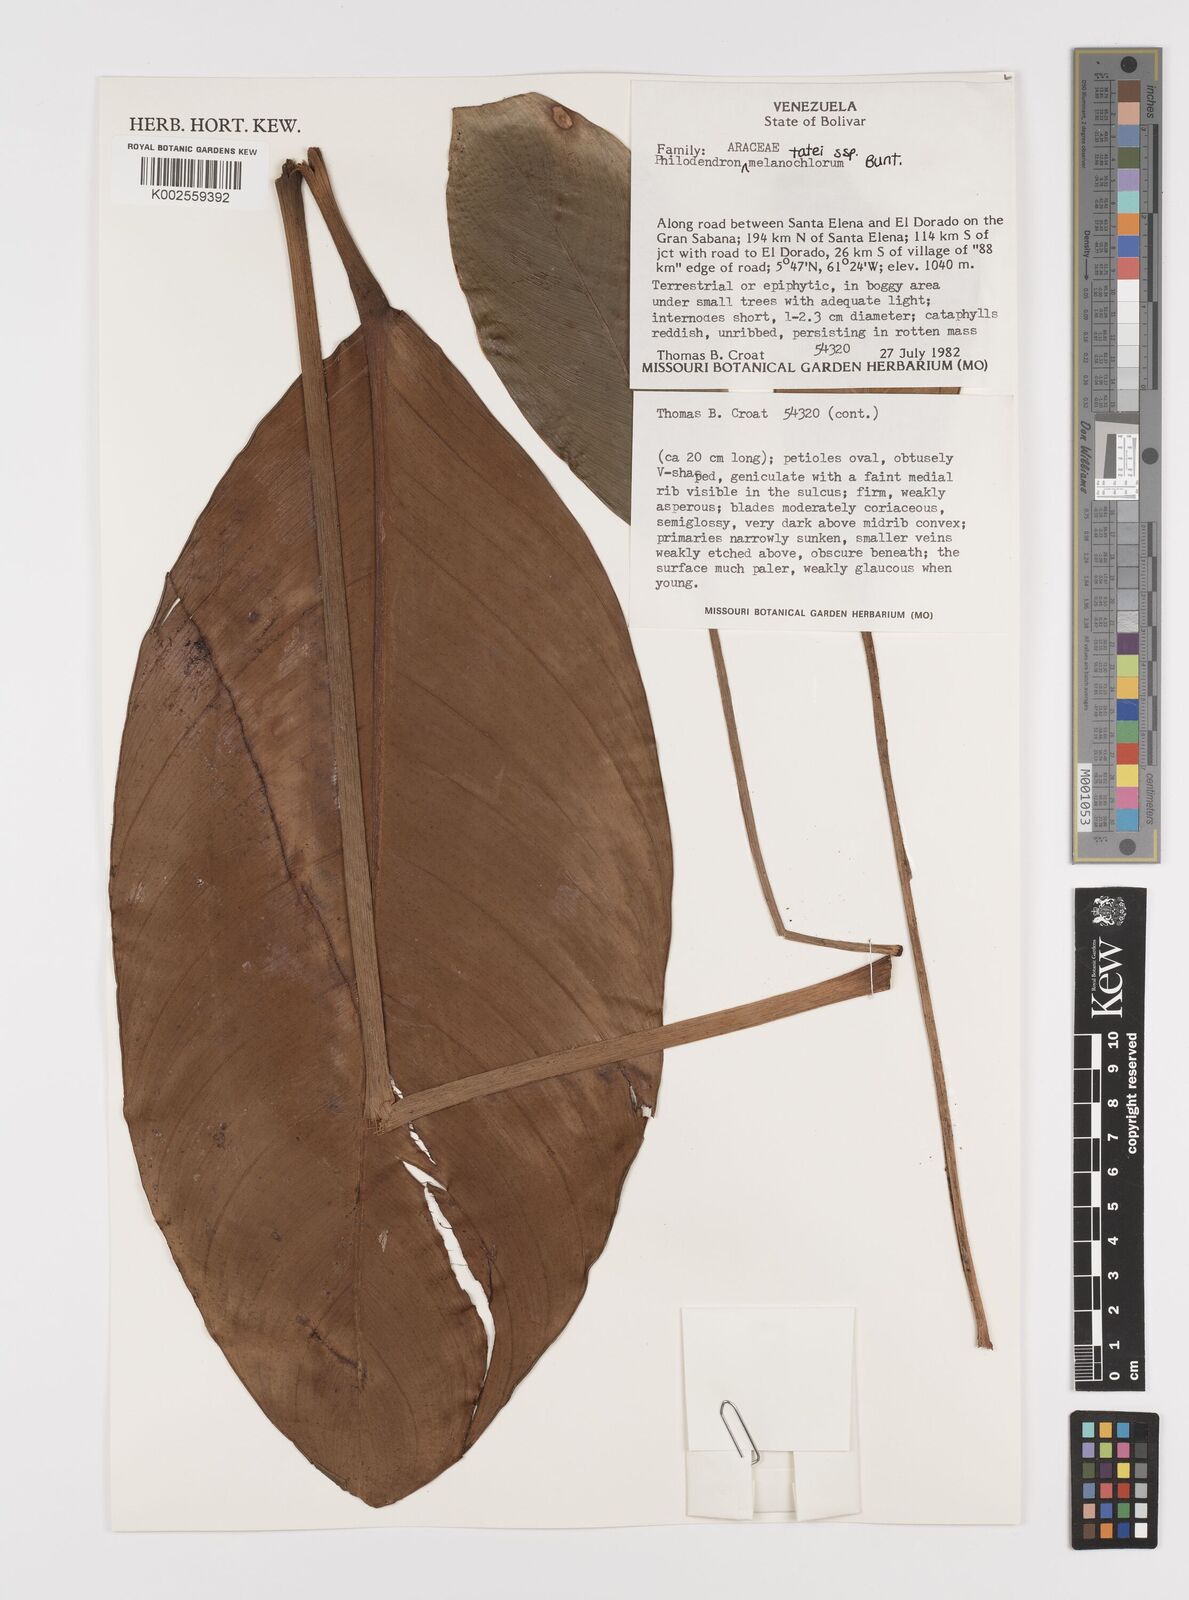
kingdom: Plantae
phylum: Tracheophyta
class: Liliopsida
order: Alismatales
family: Araceae
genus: Philodendron
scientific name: Philodendron tatei
